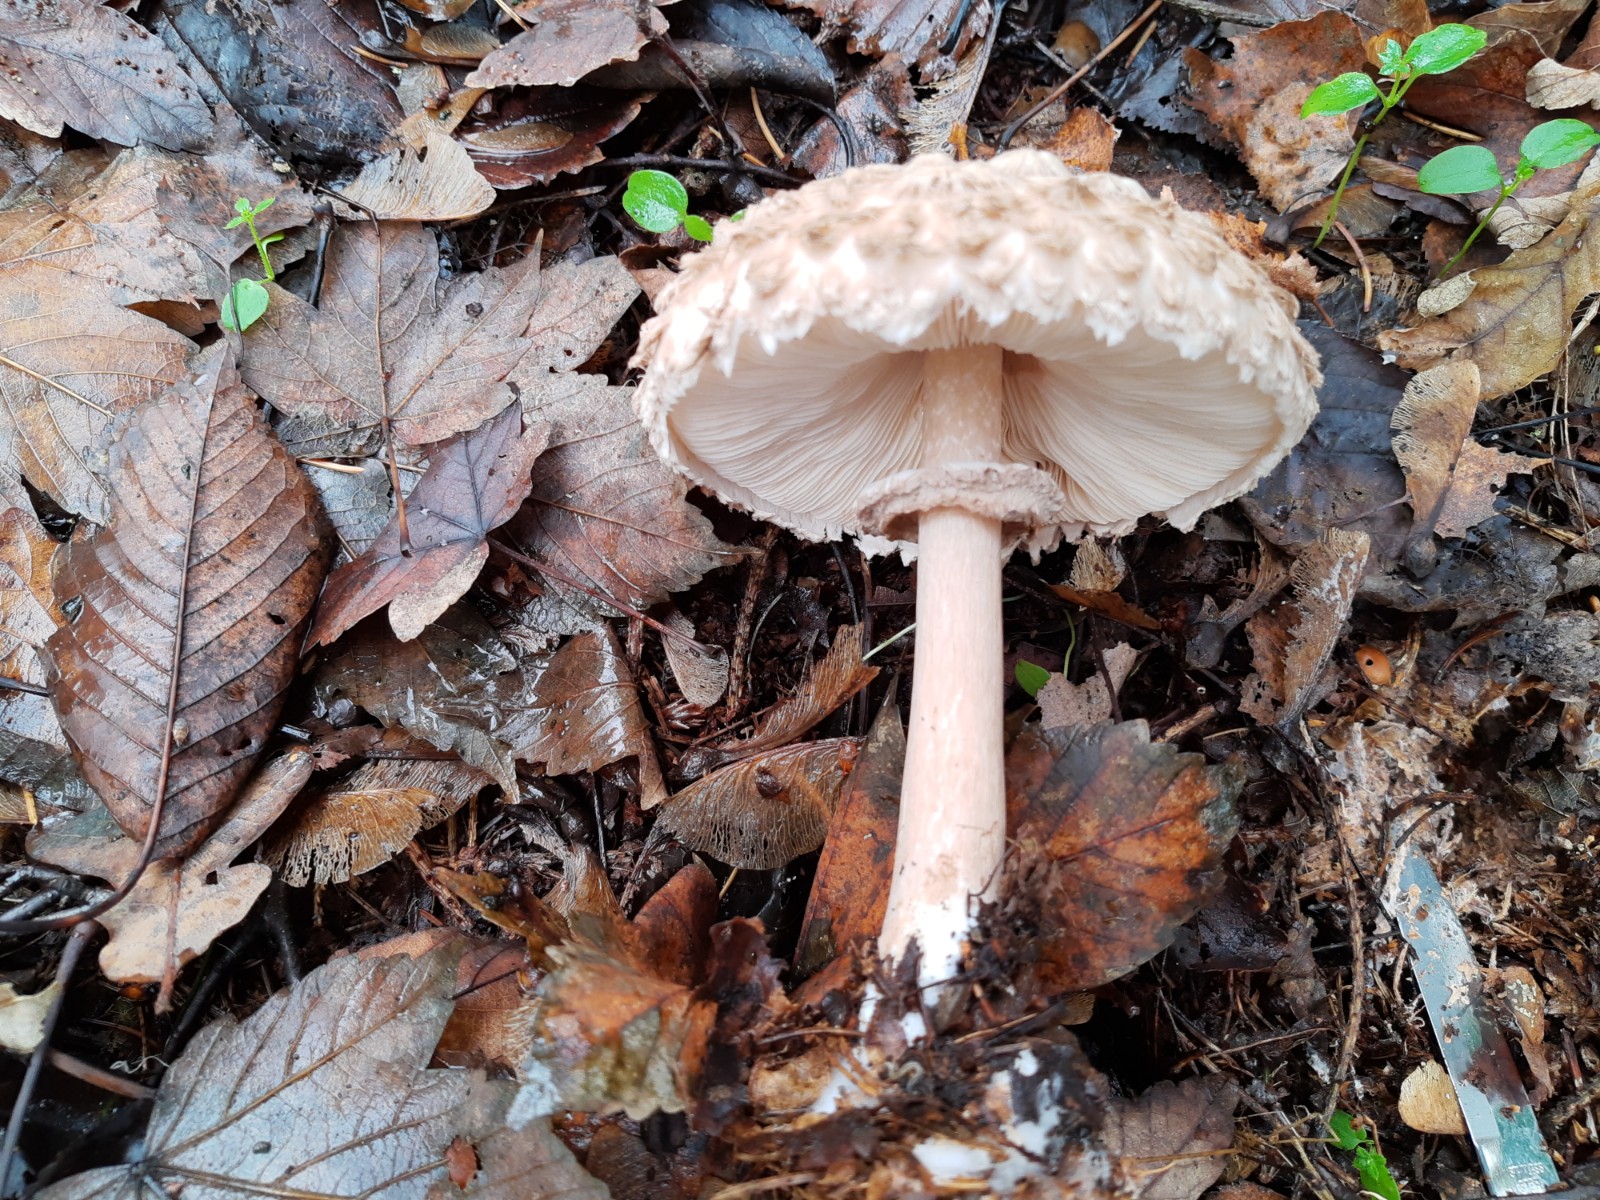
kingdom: Fungi
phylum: Basidiomycota
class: Agaricomycetes
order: Agaricales
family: Agaricaceae
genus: Chlorophyllum
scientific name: Chlorophyllum olivieri
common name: almindelig rabarberhat
